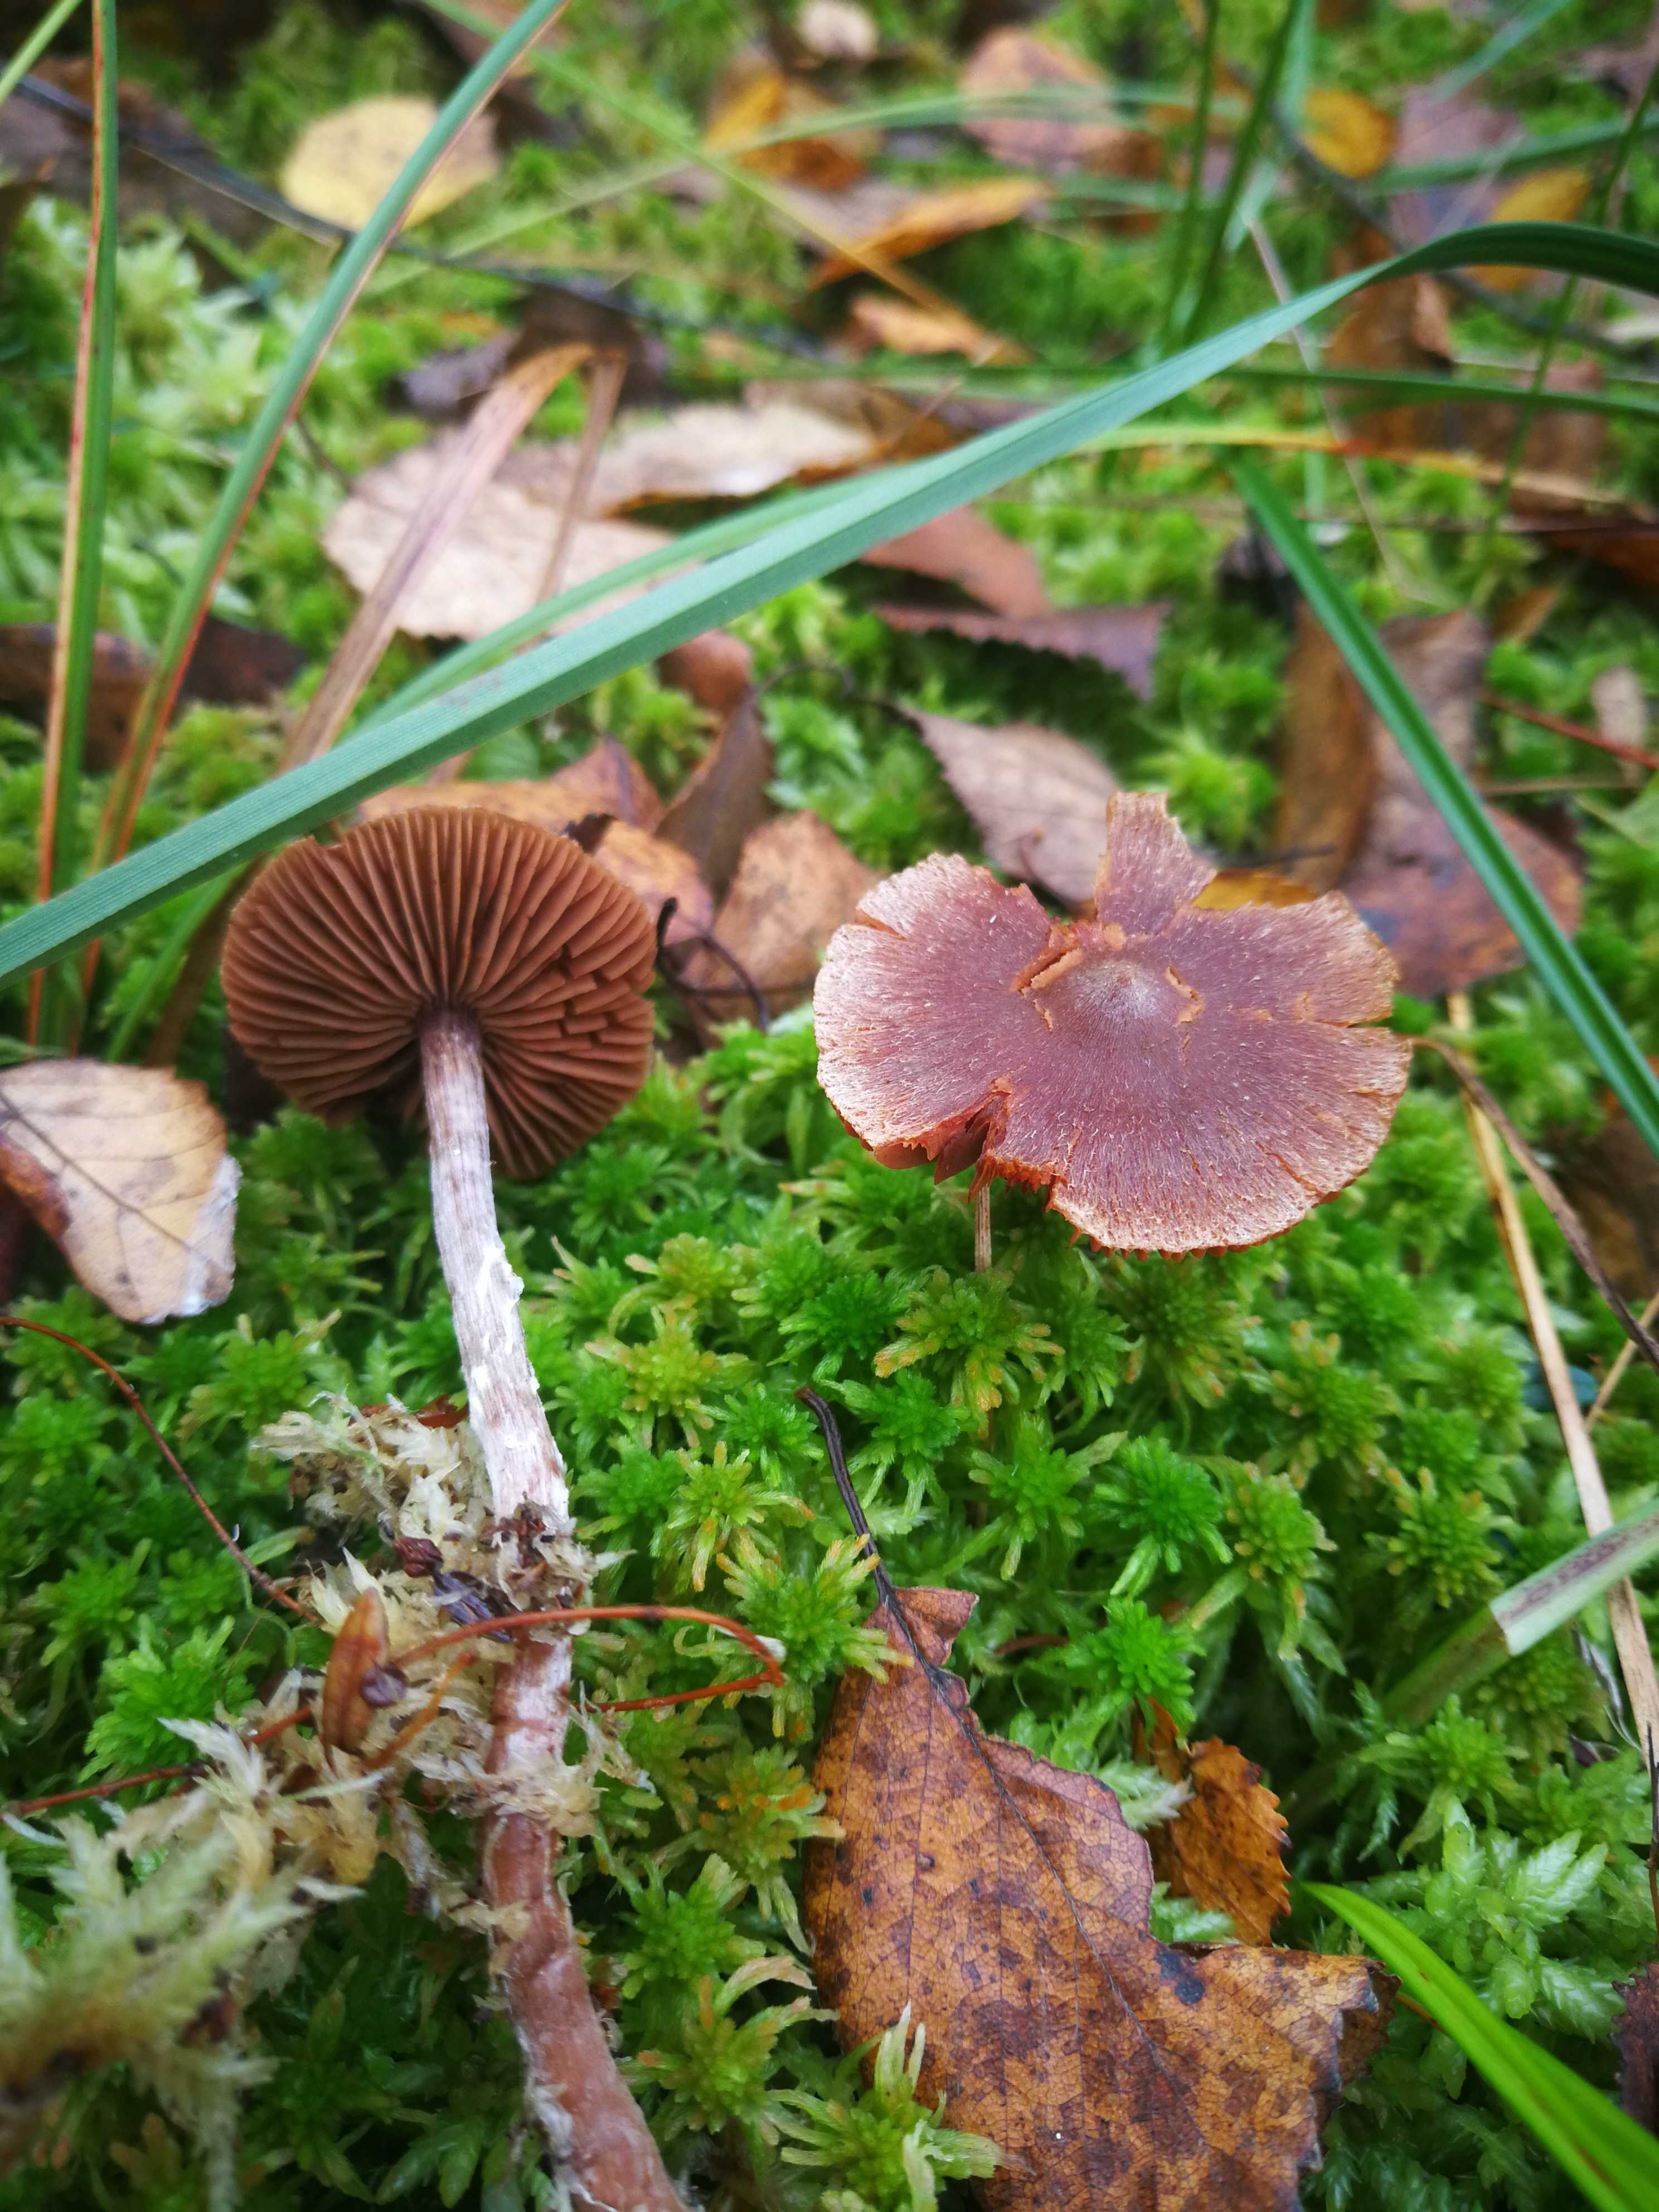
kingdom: Fungi
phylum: Basidiomycota
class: Agaricomycetes
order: Agaricales
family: Cortinariaceae
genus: Cortinarius
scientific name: Cortinarius
